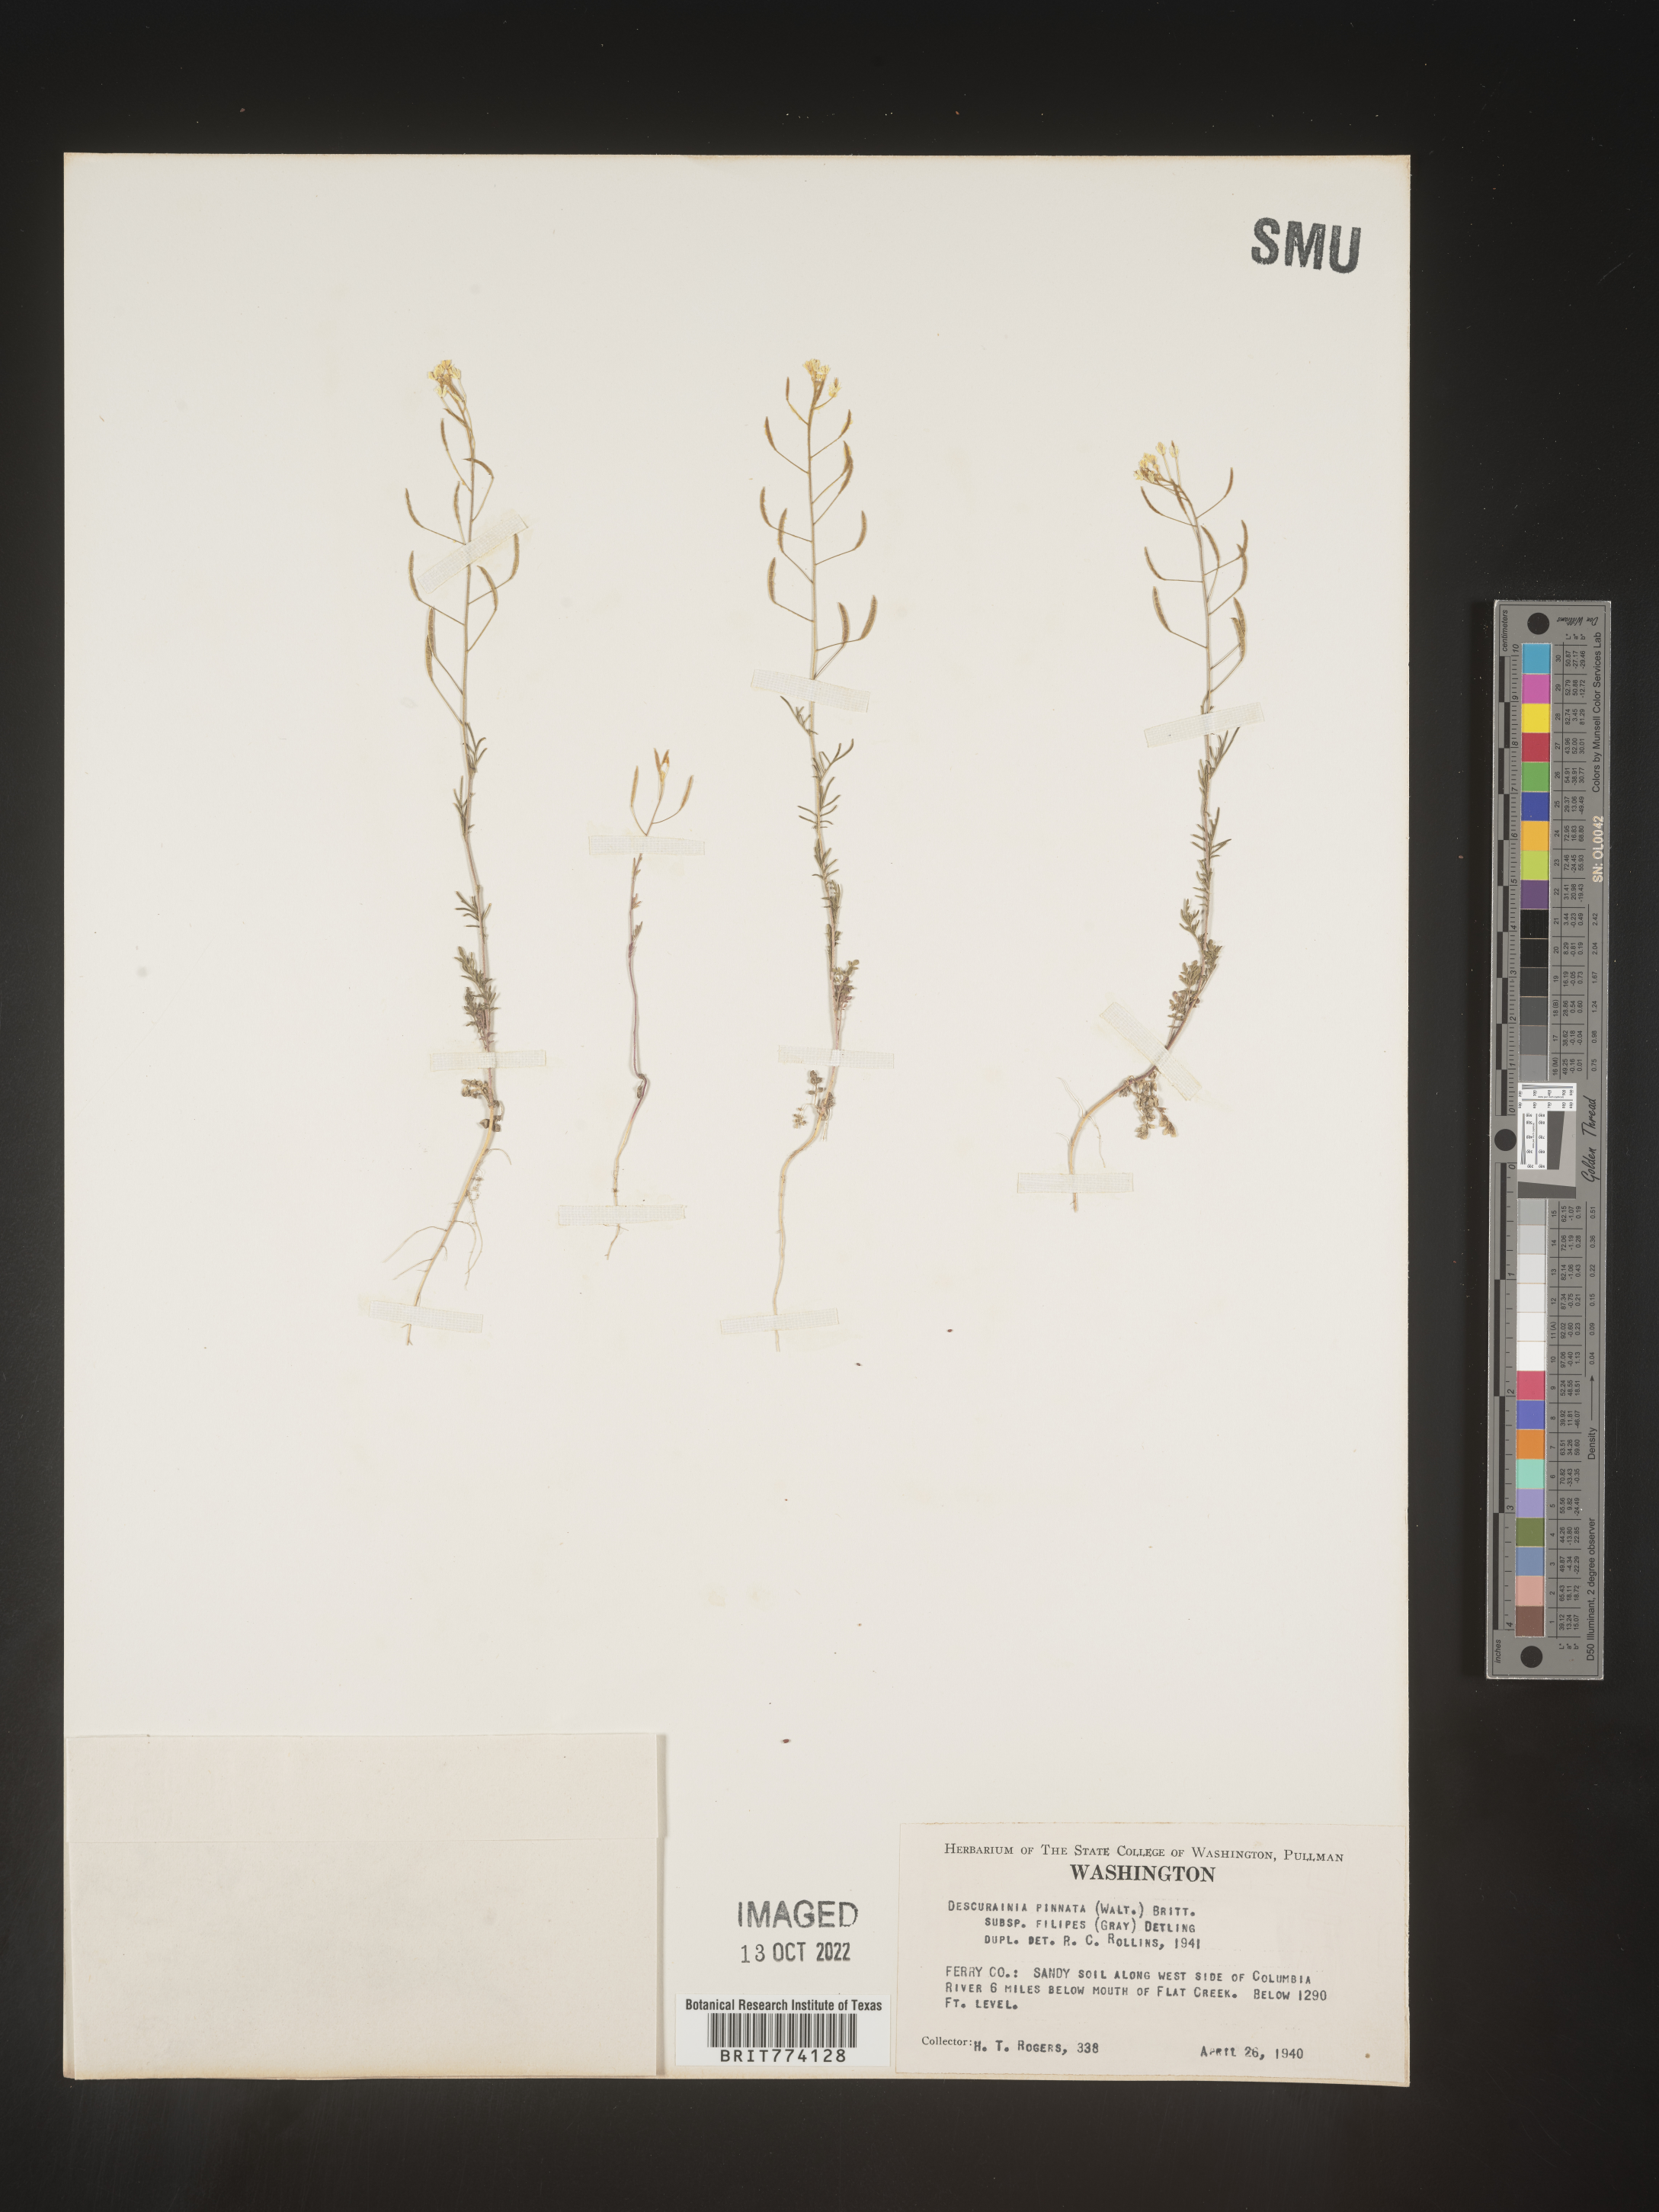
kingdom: Plantae
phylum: Tracheophyta
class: Magnoliopsida
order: Brassicales
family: Brassicaceae
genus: Descurainia
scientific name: Descurainia longipedicellata
